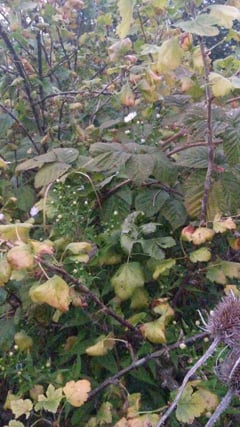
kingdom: Animalia
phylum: Arthropoda
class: Insecta
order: Orthoptera
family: Gryllidae
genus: Oecanthus
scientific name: Oecanthus pellucens
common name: Tree-cricket
